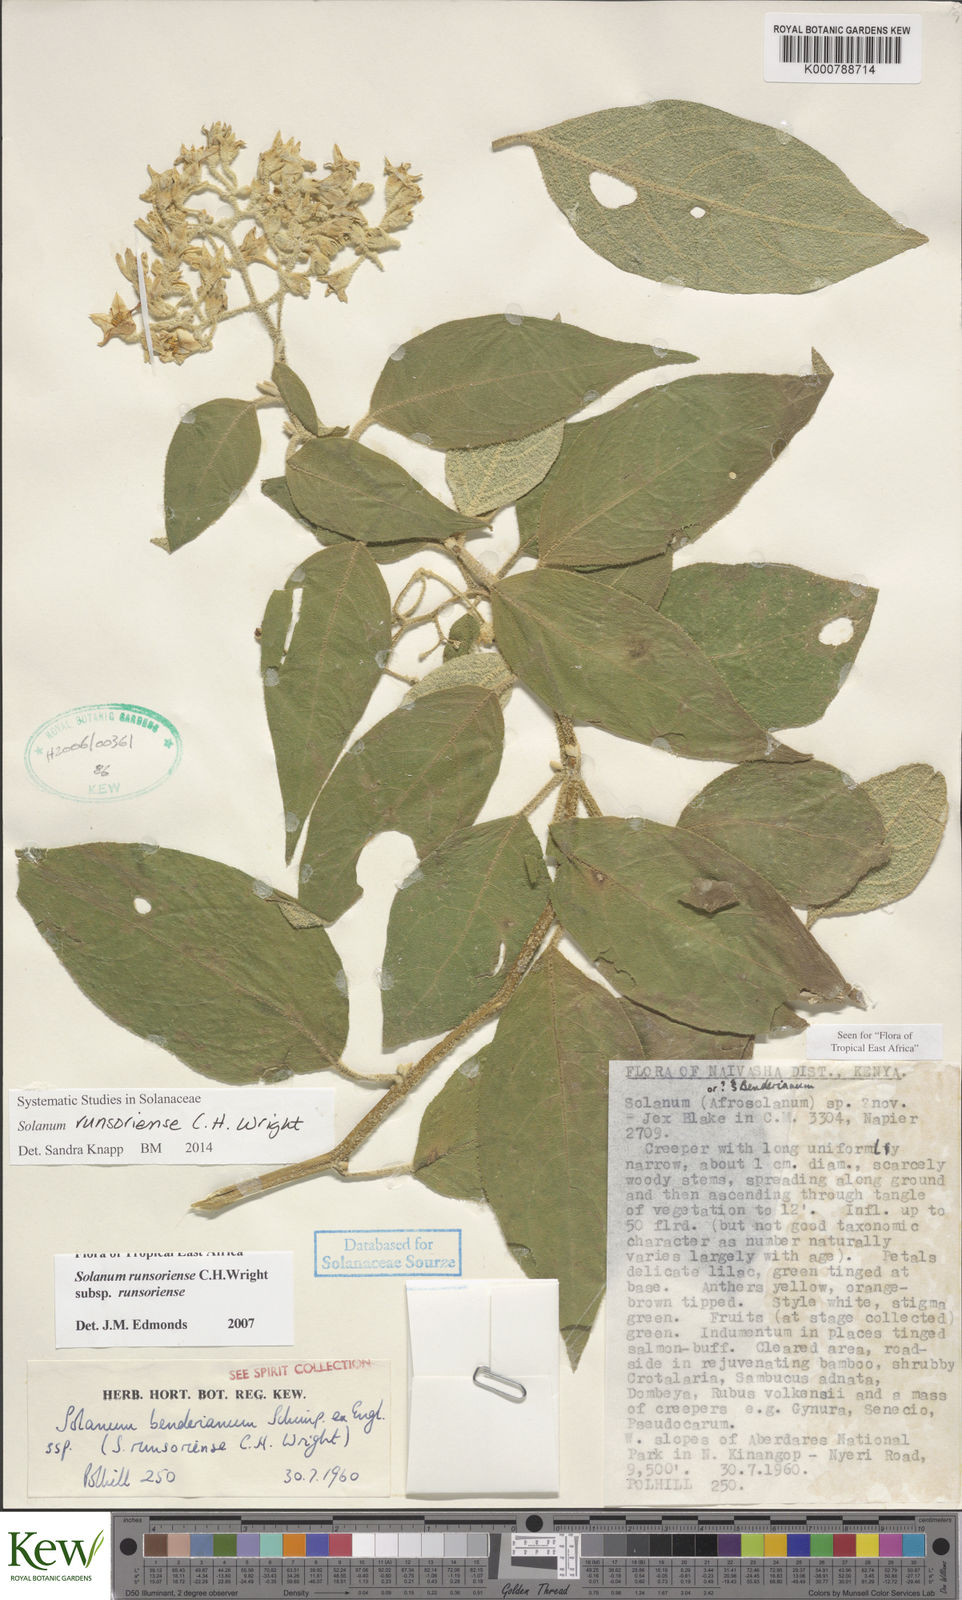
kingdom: Plantae
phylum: Tracheophyta
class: Magnoliopsida
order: Solanales
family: Solanaceae
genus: Solanum
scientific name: Solanum runsoriense
